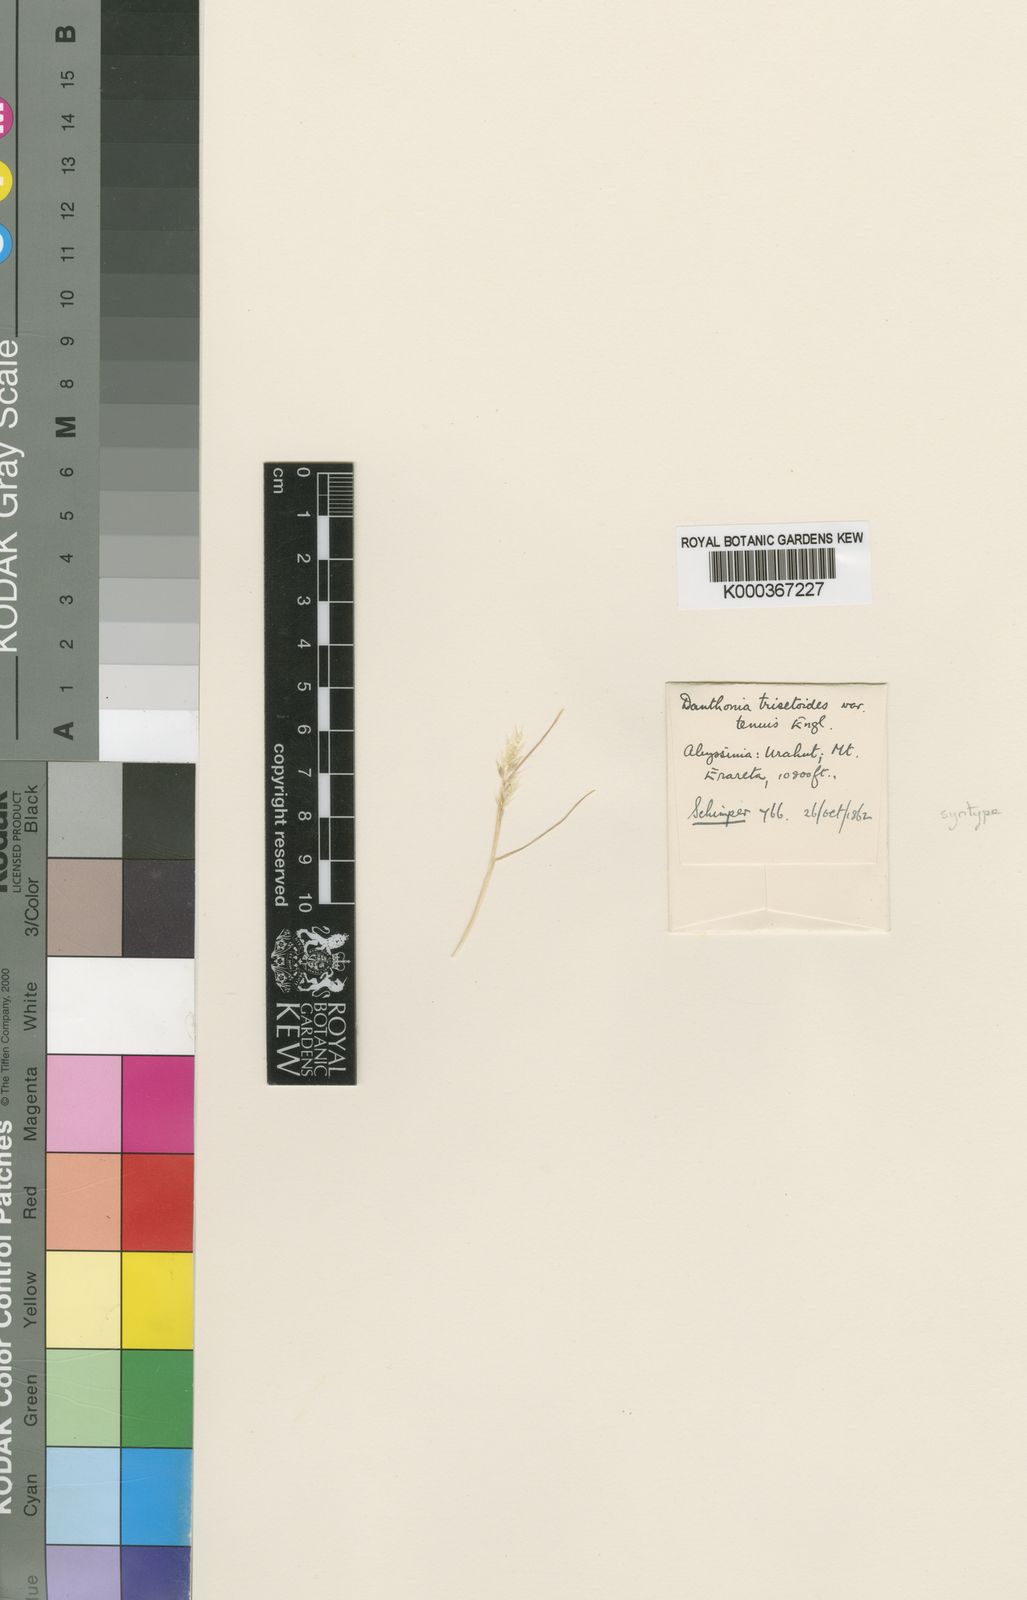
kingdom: Plantae
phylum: Tracheophyta
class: Liliopsida
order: Poales
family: Poaceae
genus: Pentameris
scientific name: Pentameris trisetoides
